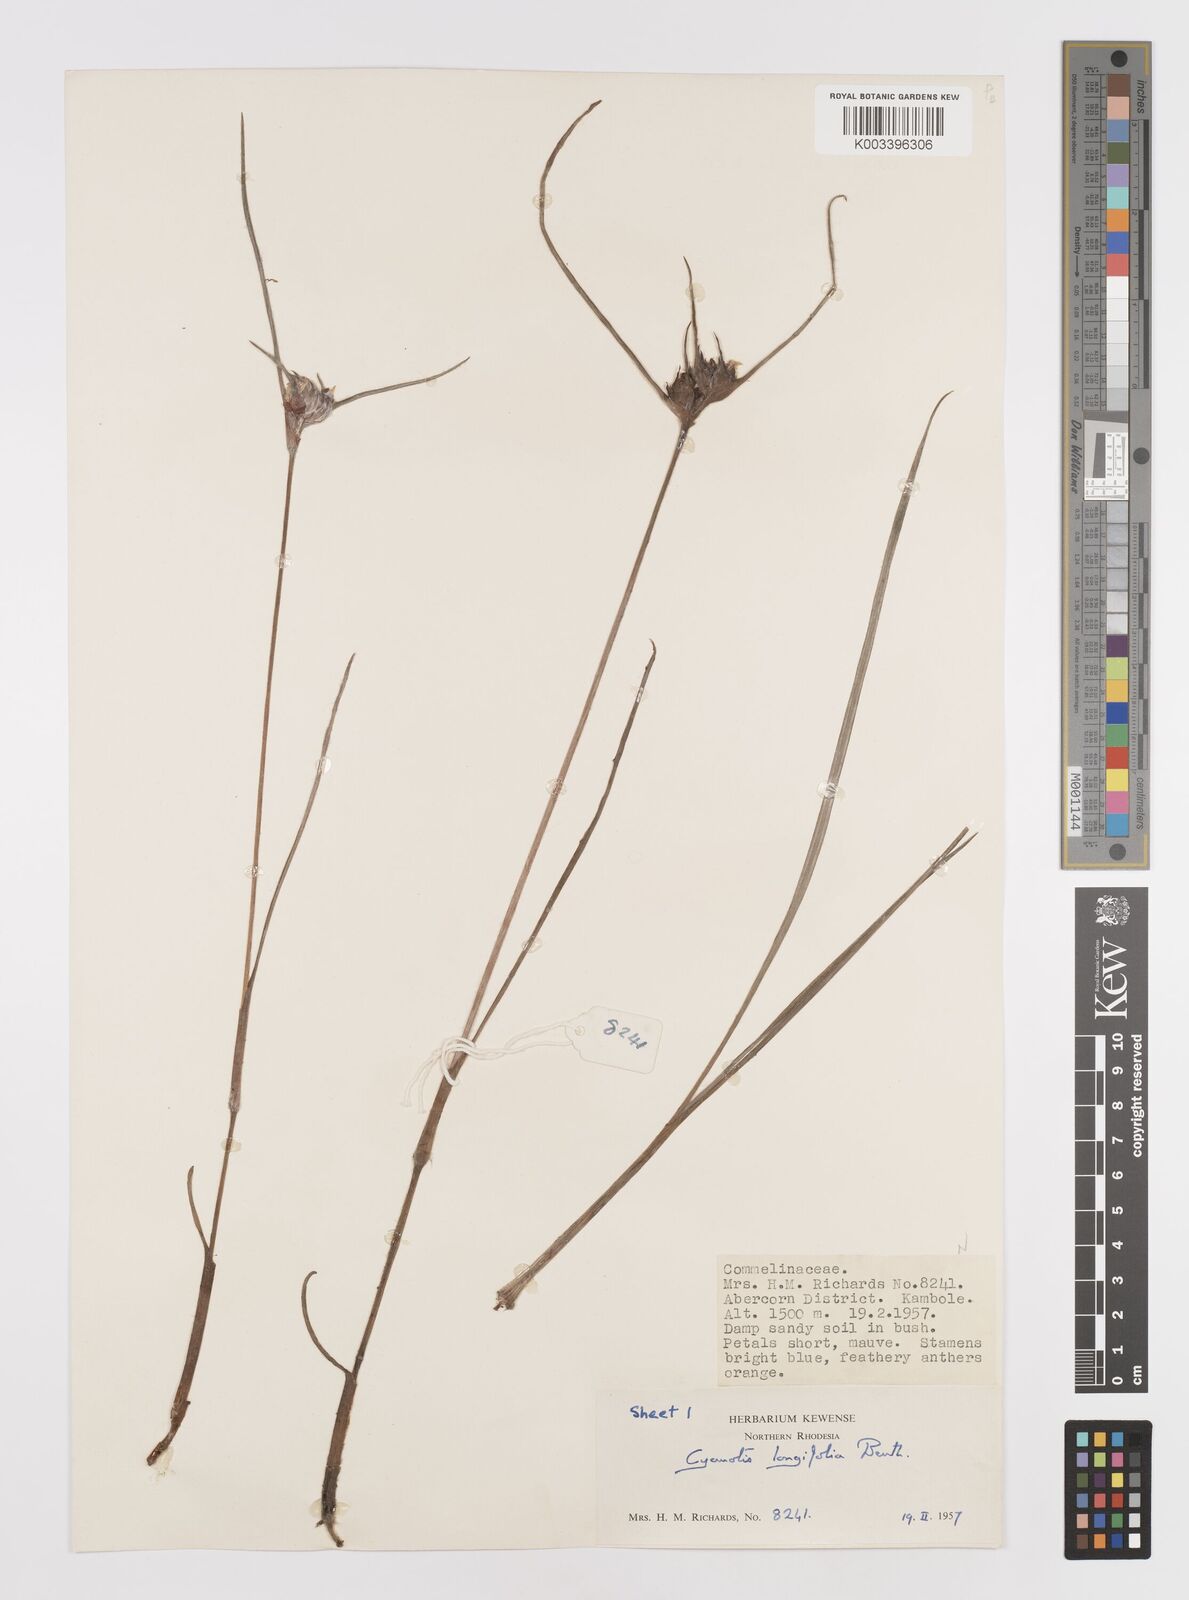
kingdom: Plantae
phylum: Tracheophyta
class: Liliopsida
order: Commelinales
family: Commelinaceae
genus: Cyanotis
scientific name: Cyanotis longifolia
